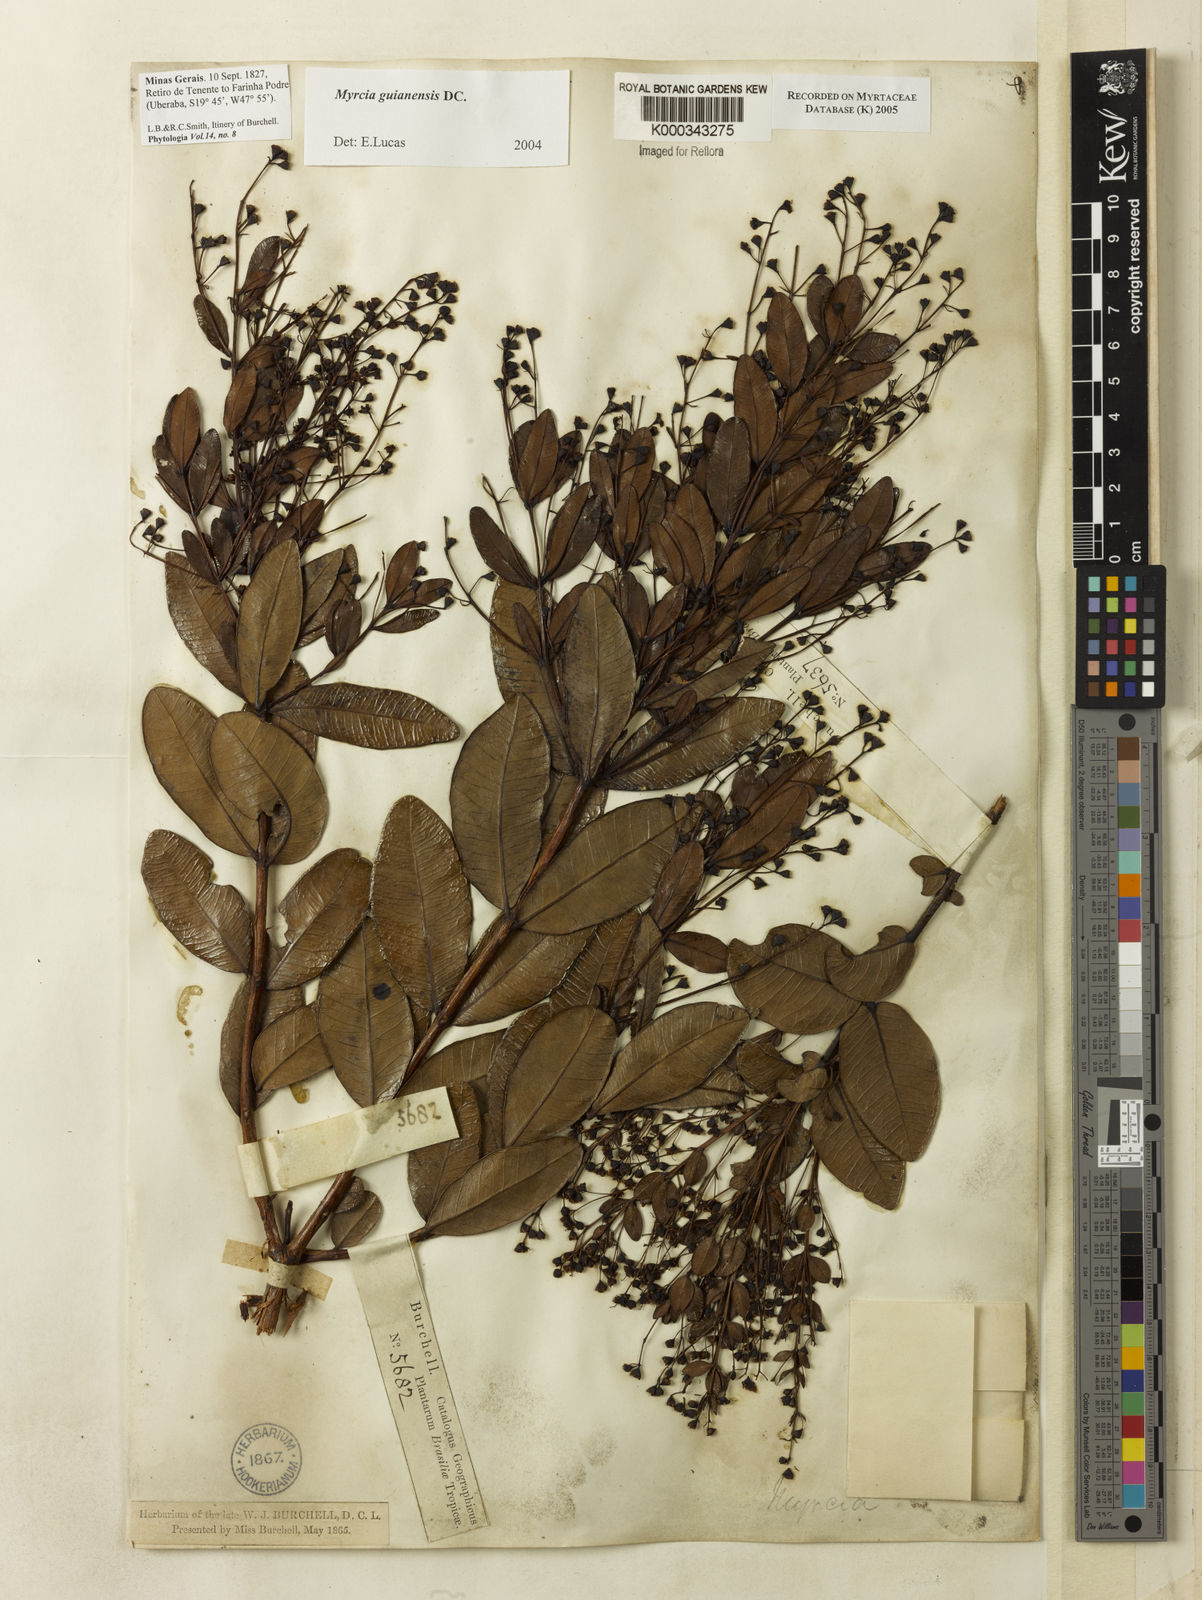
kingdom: Plantae
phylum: Tracheophyta
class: Magnoliopsida
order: Myrtales
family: Myrtaceae
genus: Myrcia
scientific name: Myrcia guianensis
